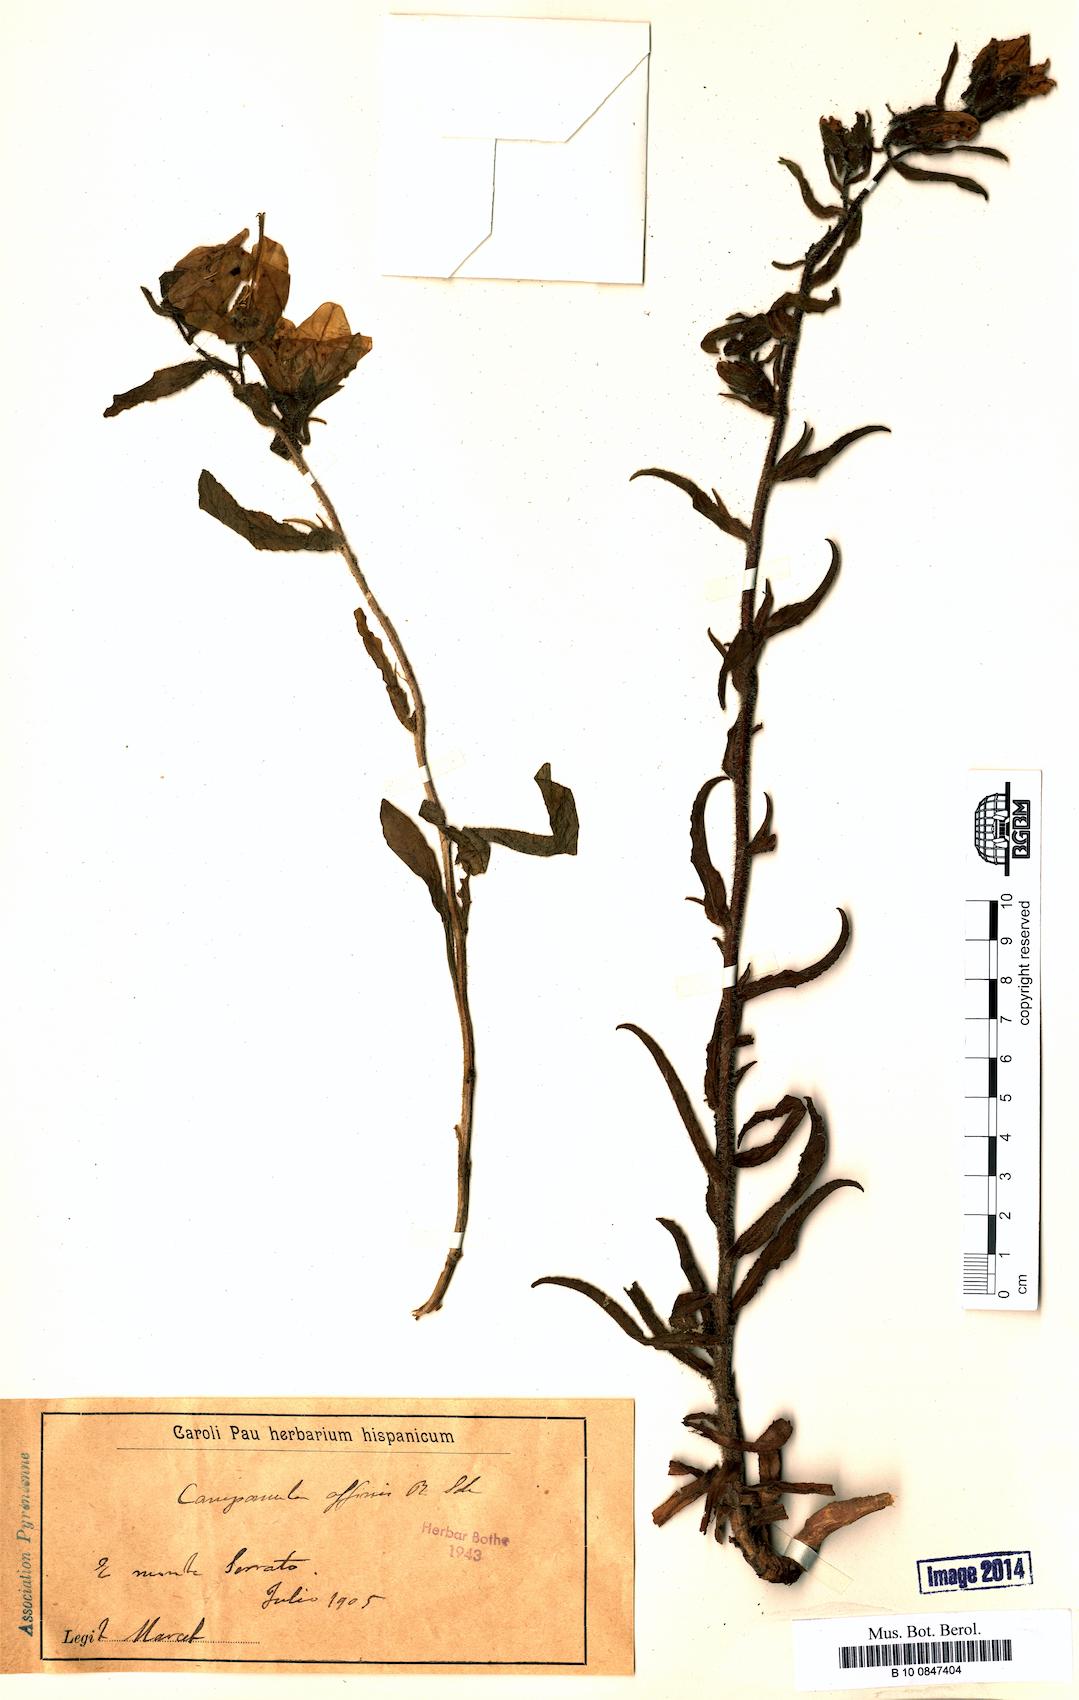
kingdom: Plantae
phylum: Tracheophyta
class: Magnoliopsida
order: Asterales
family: Campanulaceae
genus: Campanula
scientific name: Campanula speciosa
